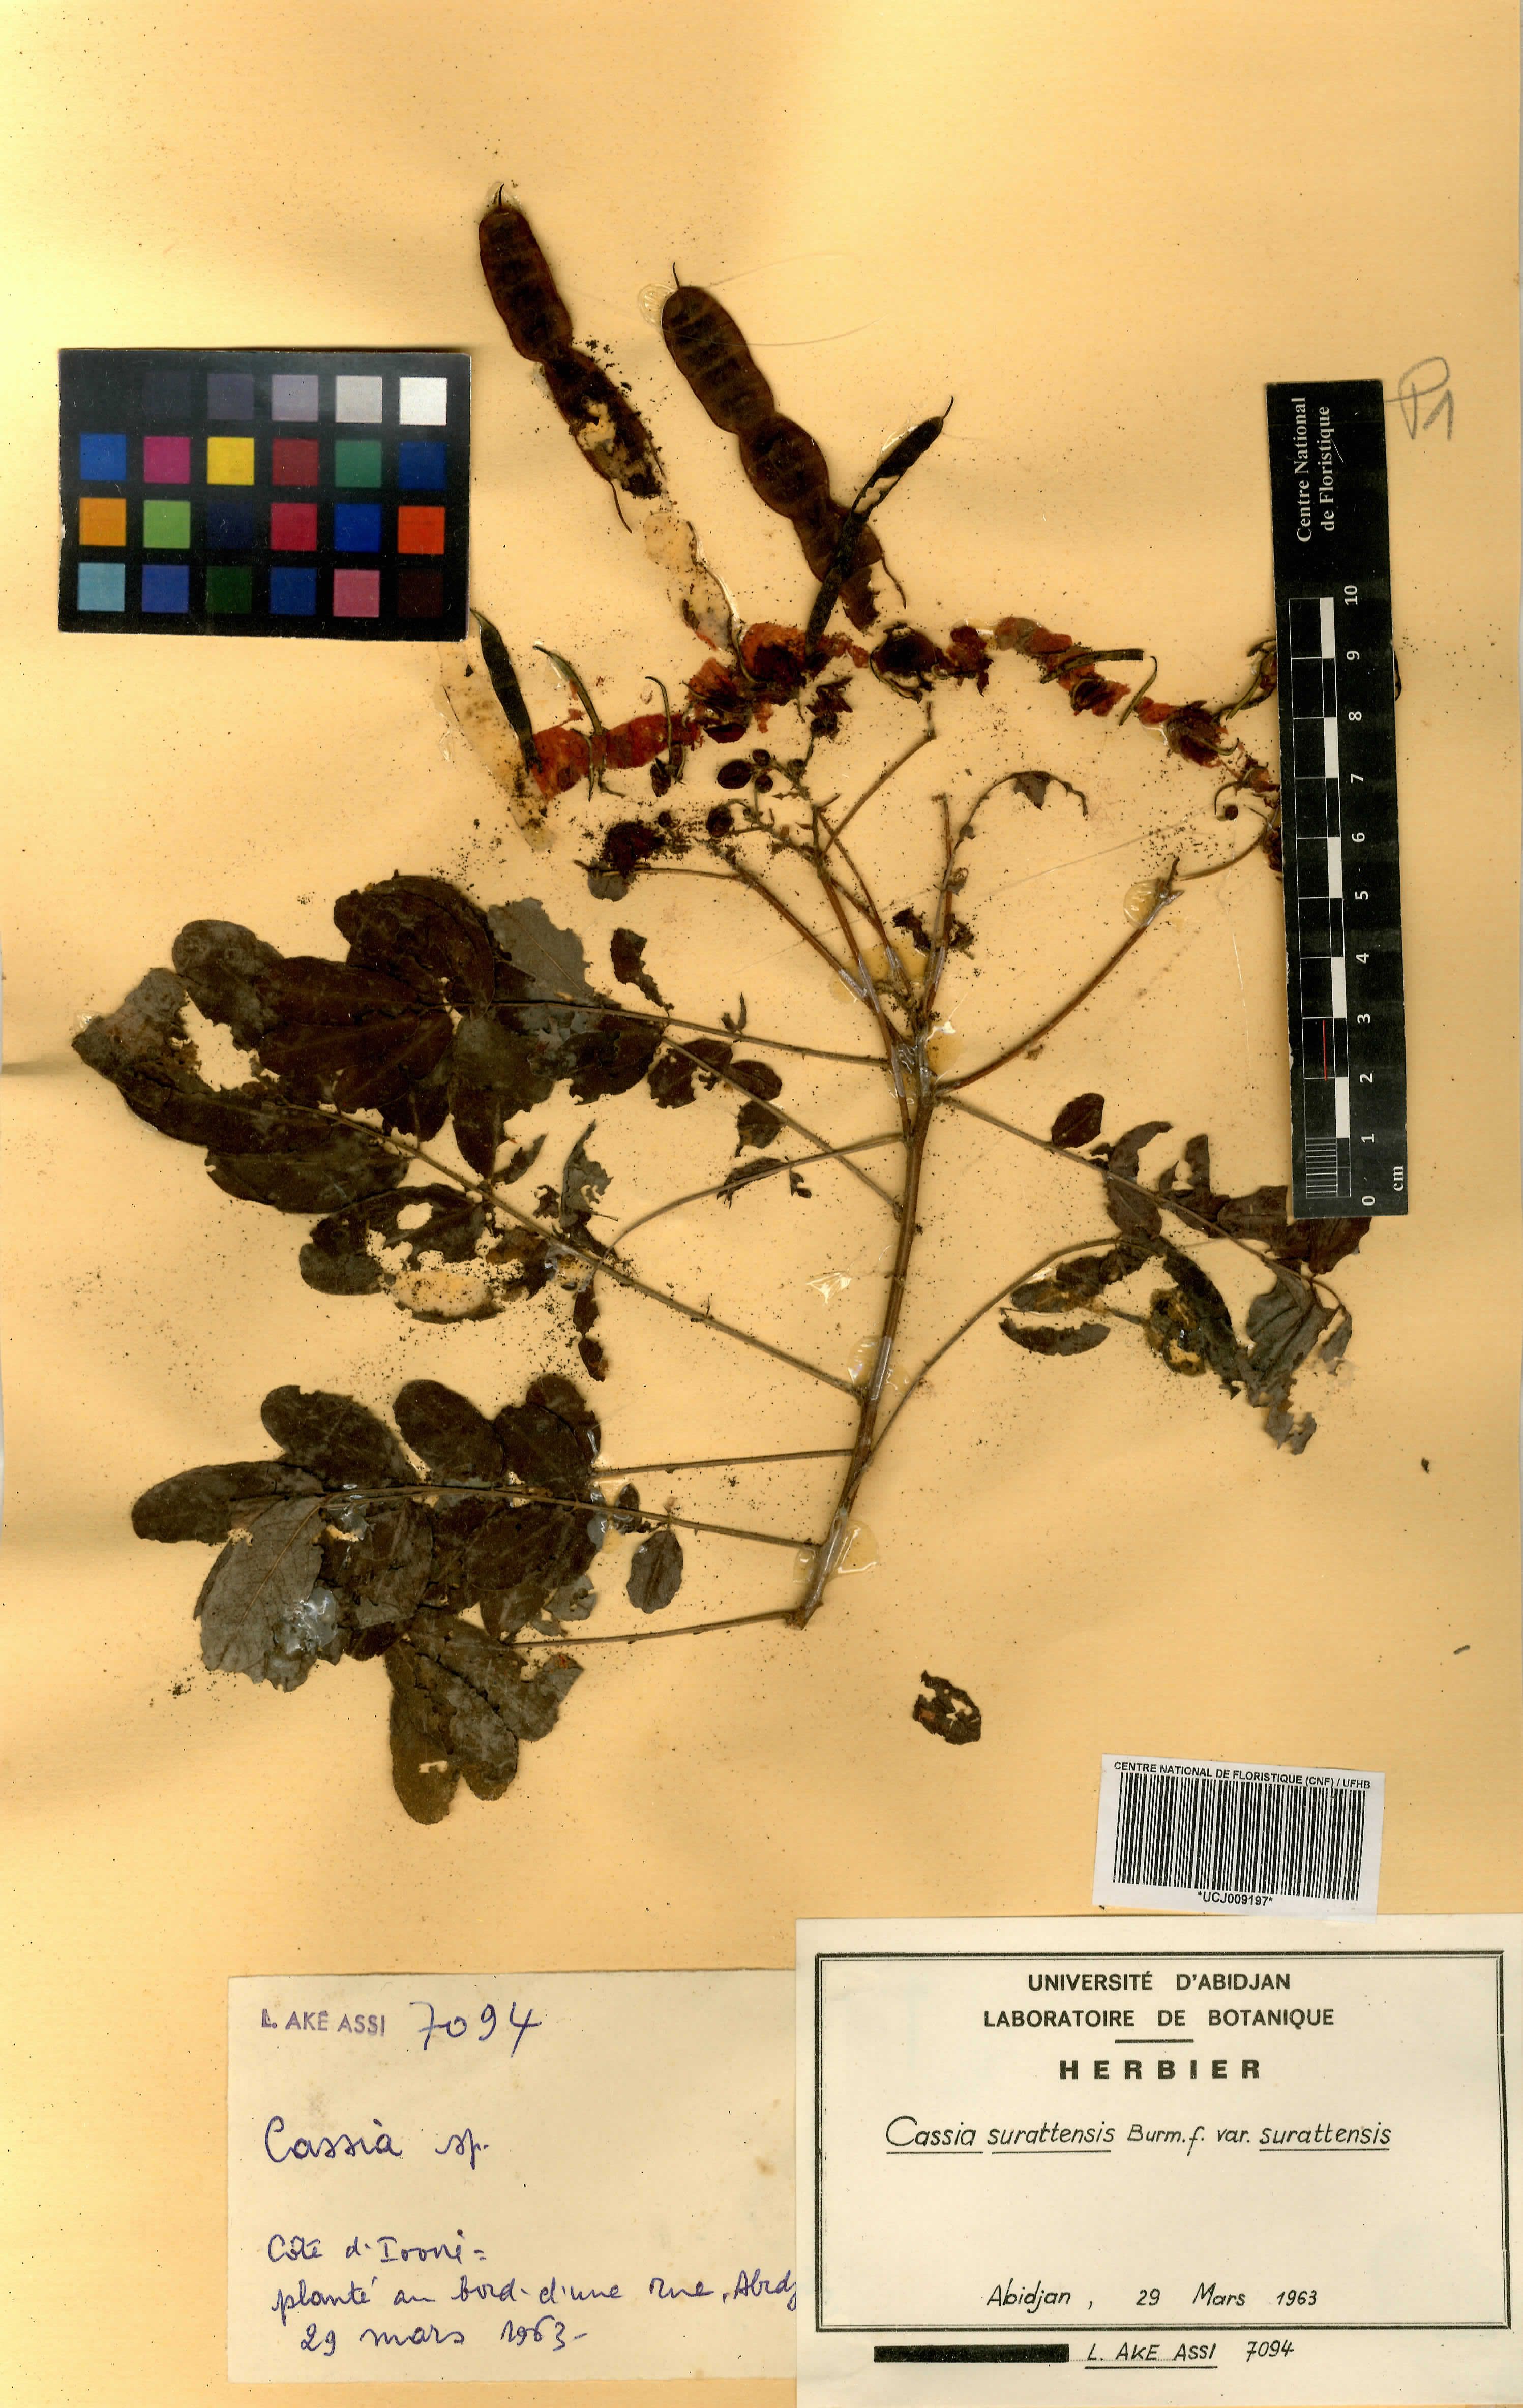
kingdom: Plantae
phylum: Tracheophyta
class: Magnoliopsida
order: Fabales
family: Fabaceae
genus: Senna
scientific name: Senna surattensis
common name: Glossy shower
